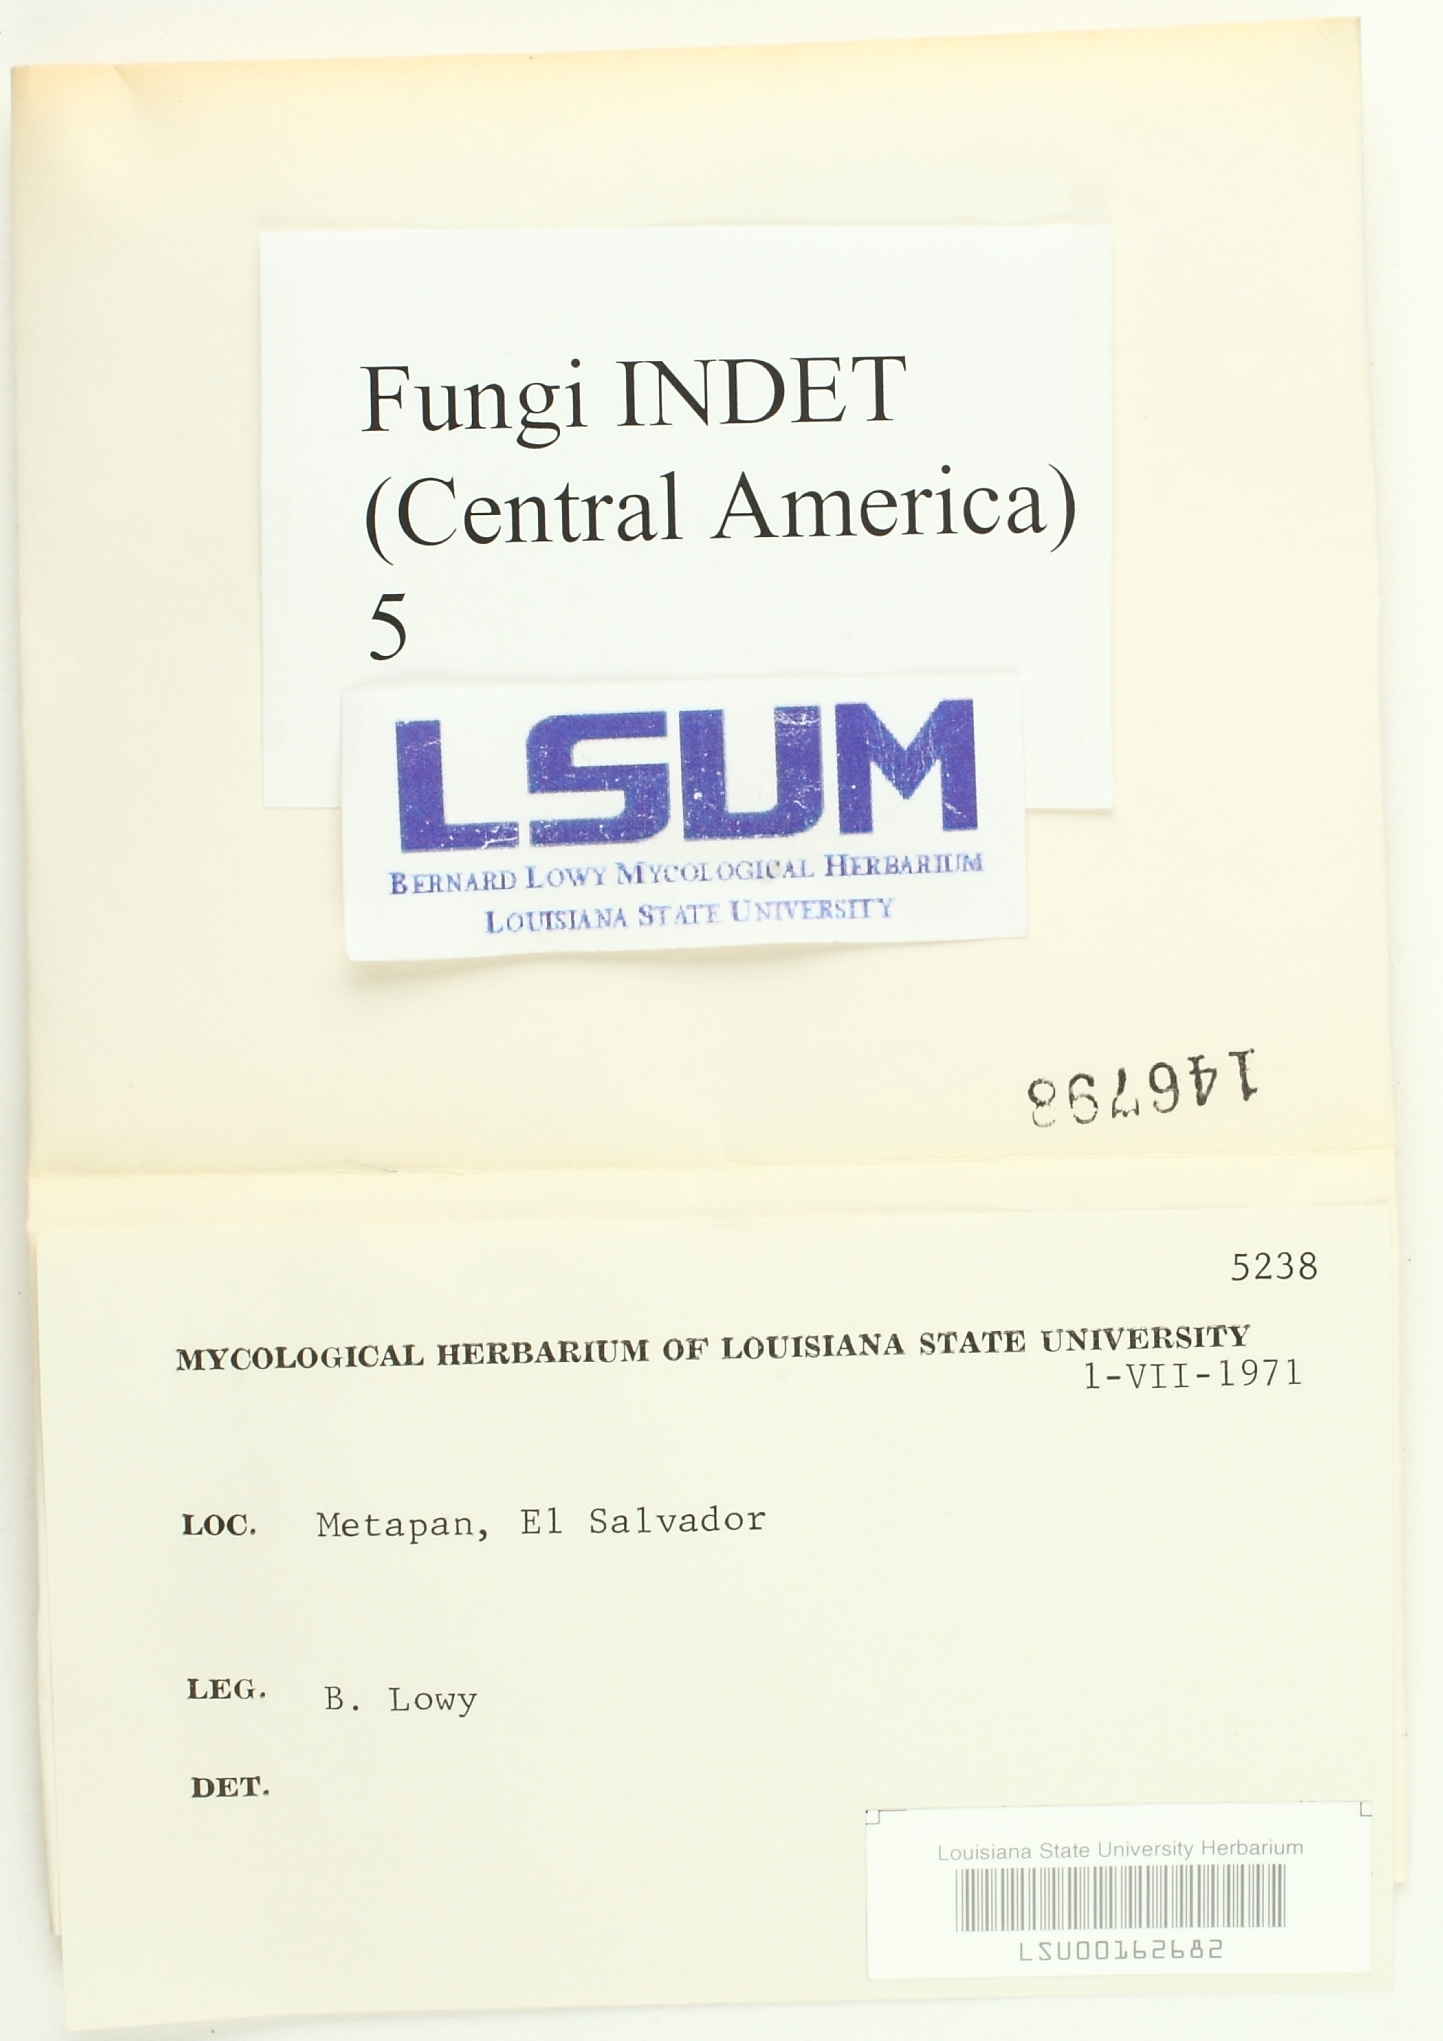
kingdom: Fungi
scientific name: Fungi
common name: Fungi
